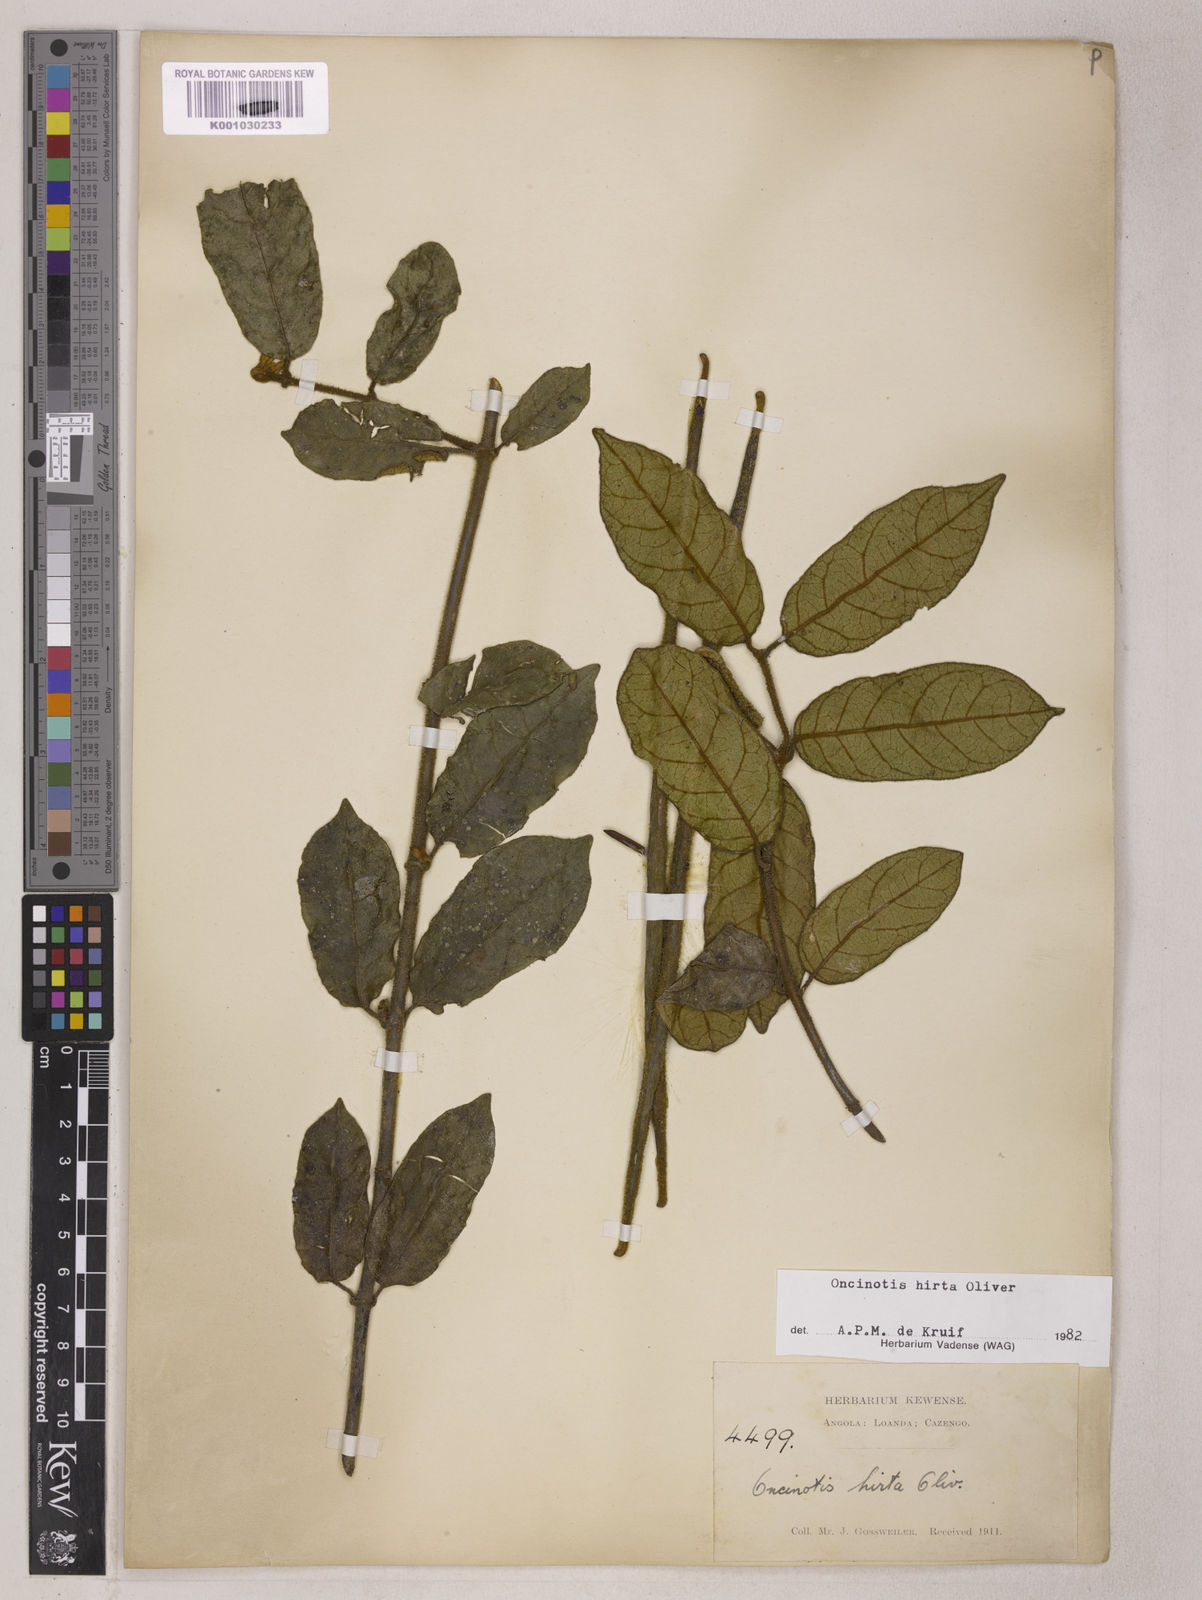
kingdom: Plantae
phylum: Tracheophyta
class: Magnoliopsida
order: Gentianales
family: Apocynaceae
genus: Oncinotis
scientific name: Oncinotis hirta
